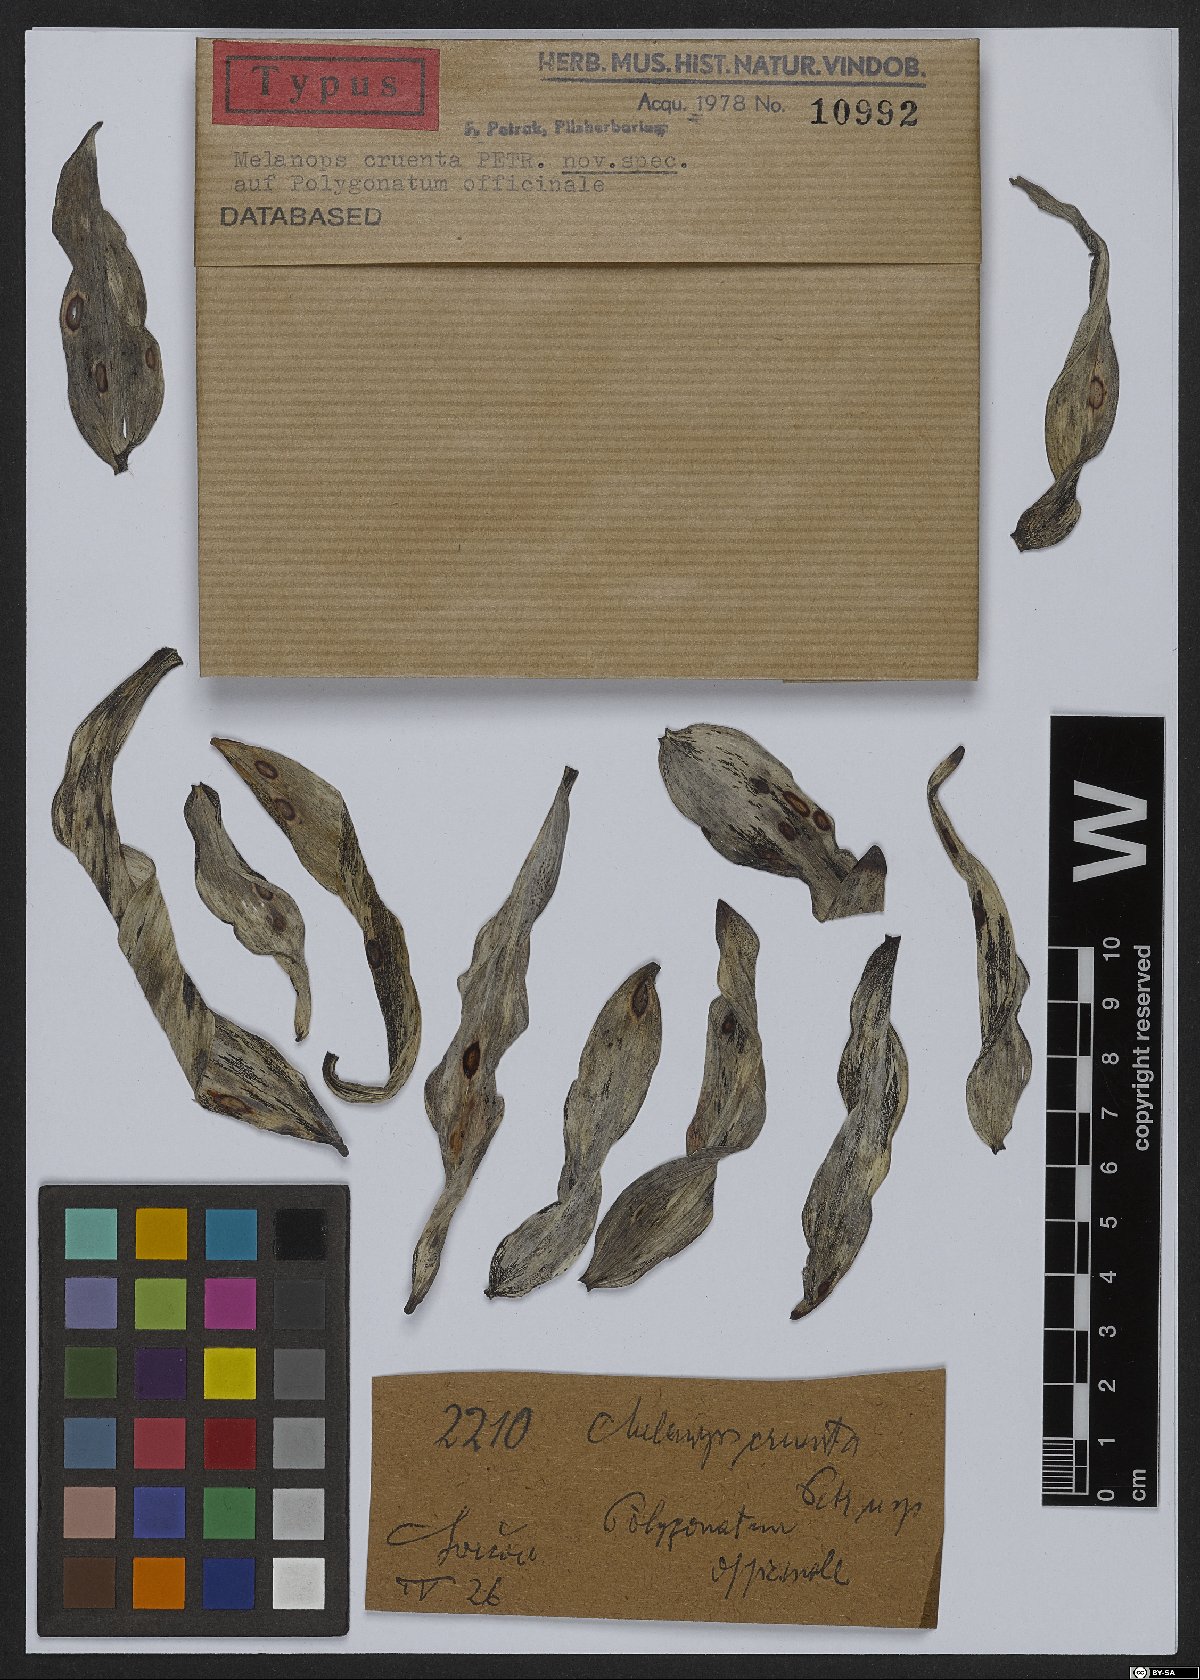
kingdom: Fungi
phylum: Ascomycota
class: Dothideomycetes
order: Botryosphaeriales
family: Botryosphaeriaceae
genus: Neofusicoccum
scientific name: Neofusicoccum cruentum ter
